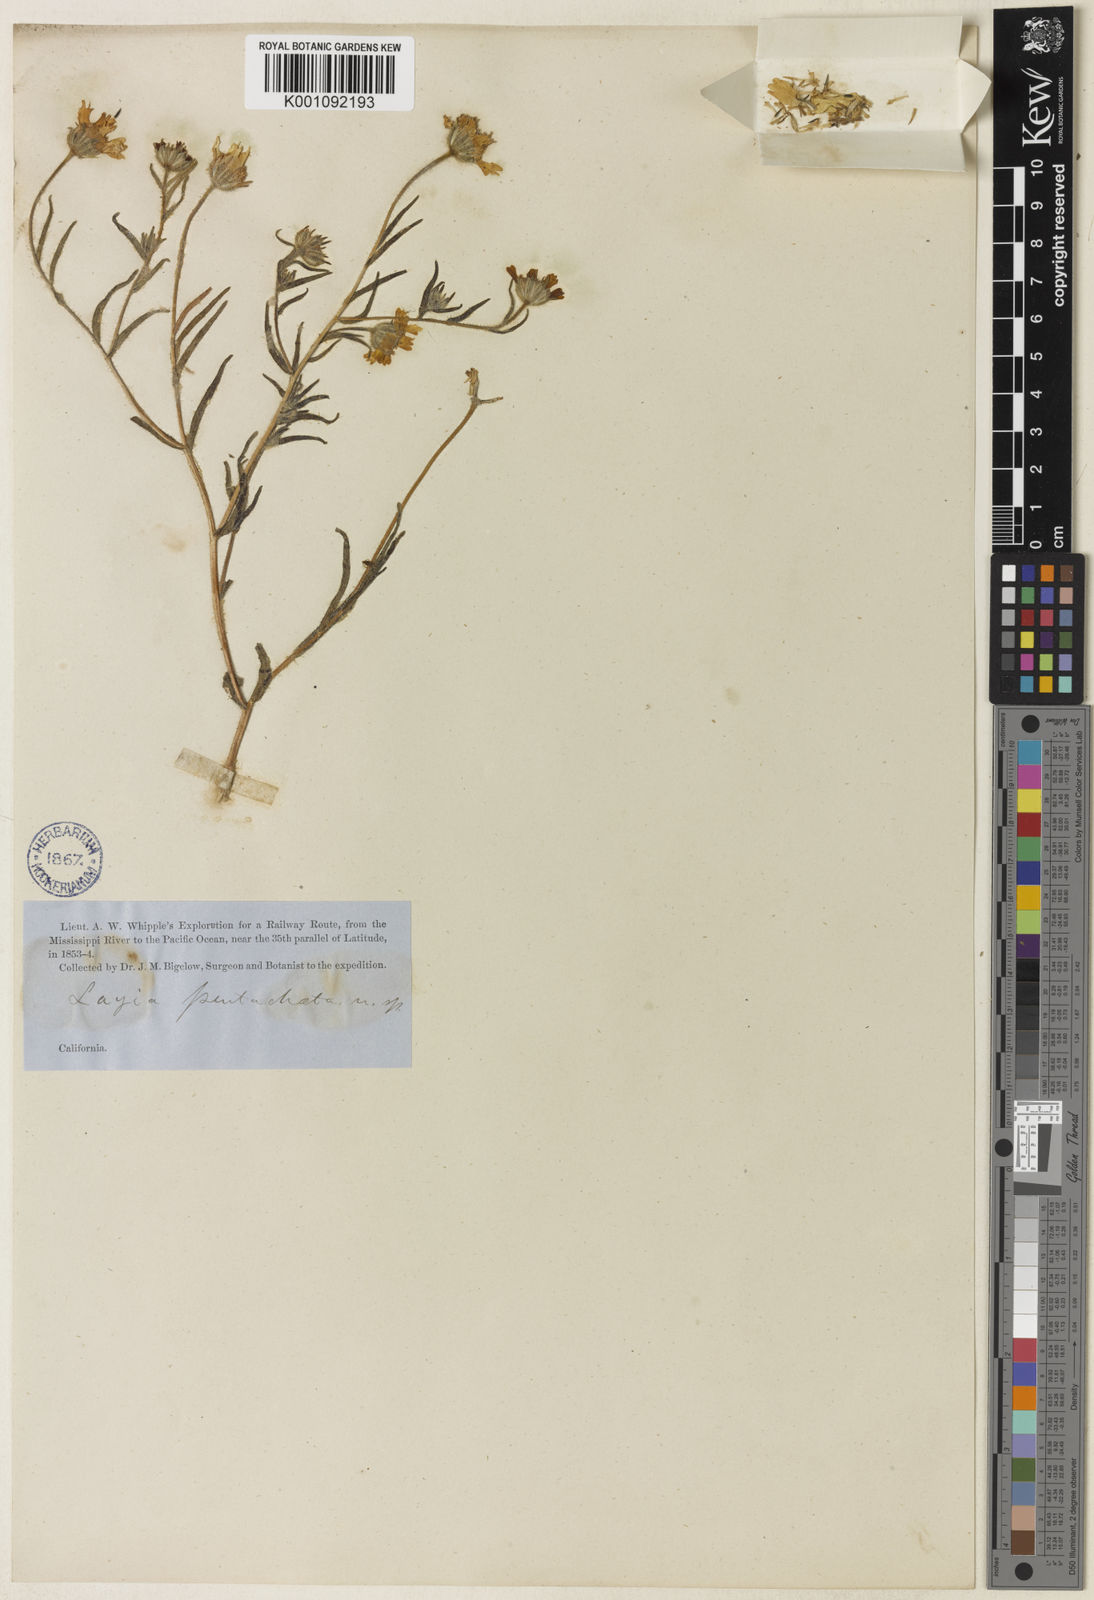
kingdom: Plantae
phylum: Tracheophyta
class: Magnoliopsida
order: Asterales
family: Asteraceae
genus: Layia
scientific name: Layia pentachaeta
